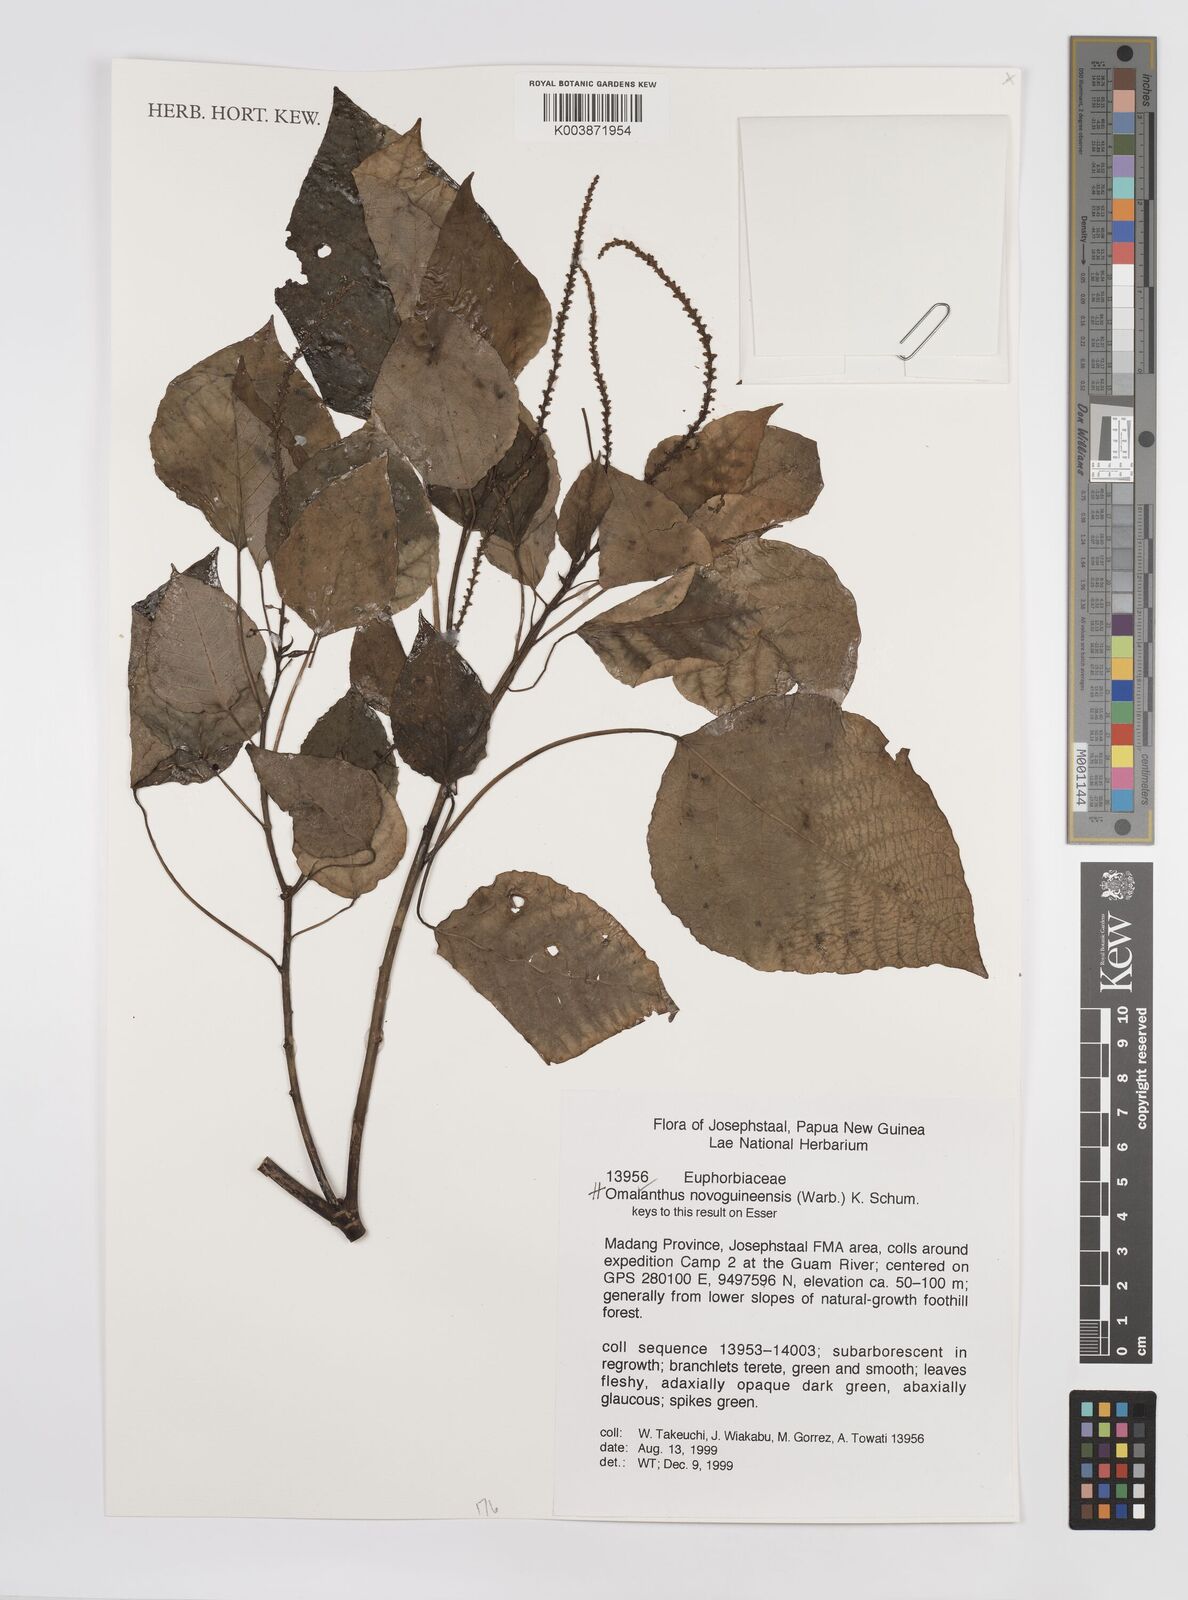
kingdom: Plantae
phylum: Tracheophyta
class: Magnoliopsida
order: Malpighiales
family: Euphorbiaceae
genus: Homalanthus
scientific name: Homalanthus novoguineensis
